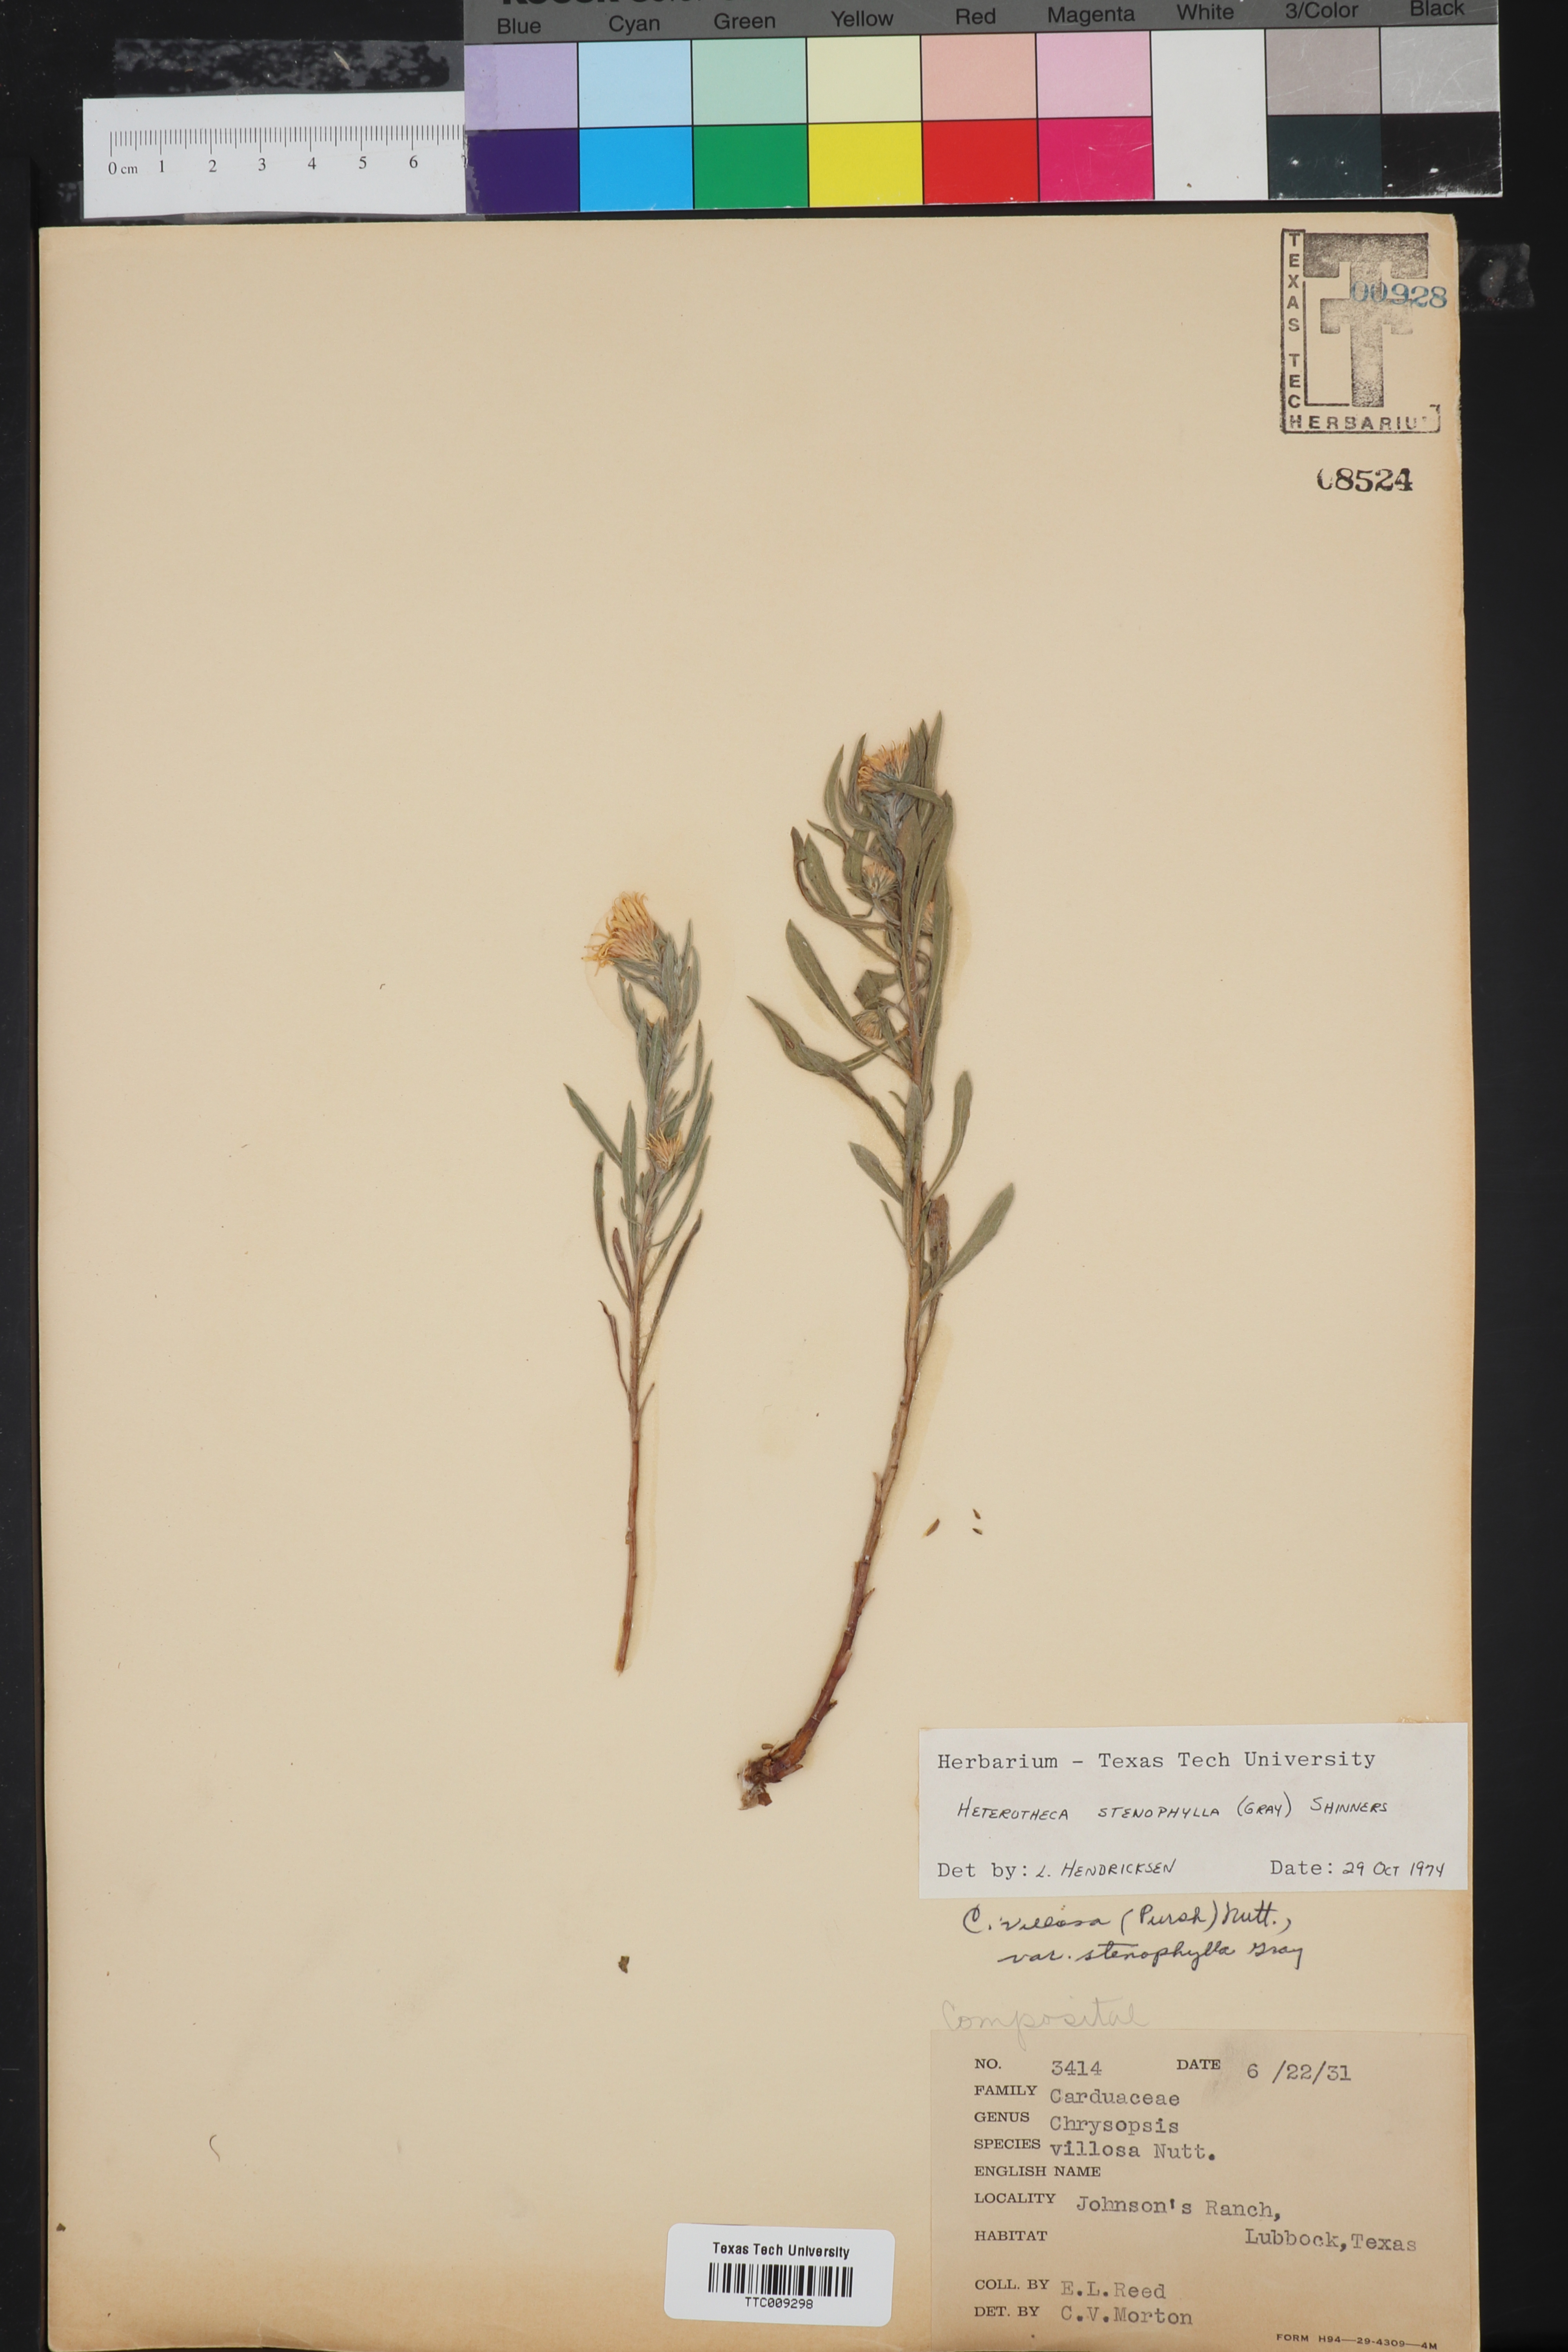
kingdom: Plantae
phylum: Tracheophyta
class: Magnoliopsida
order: Asterales
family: Asteraceae
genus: Heterotheca
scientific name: Heterotheca stenophylla
